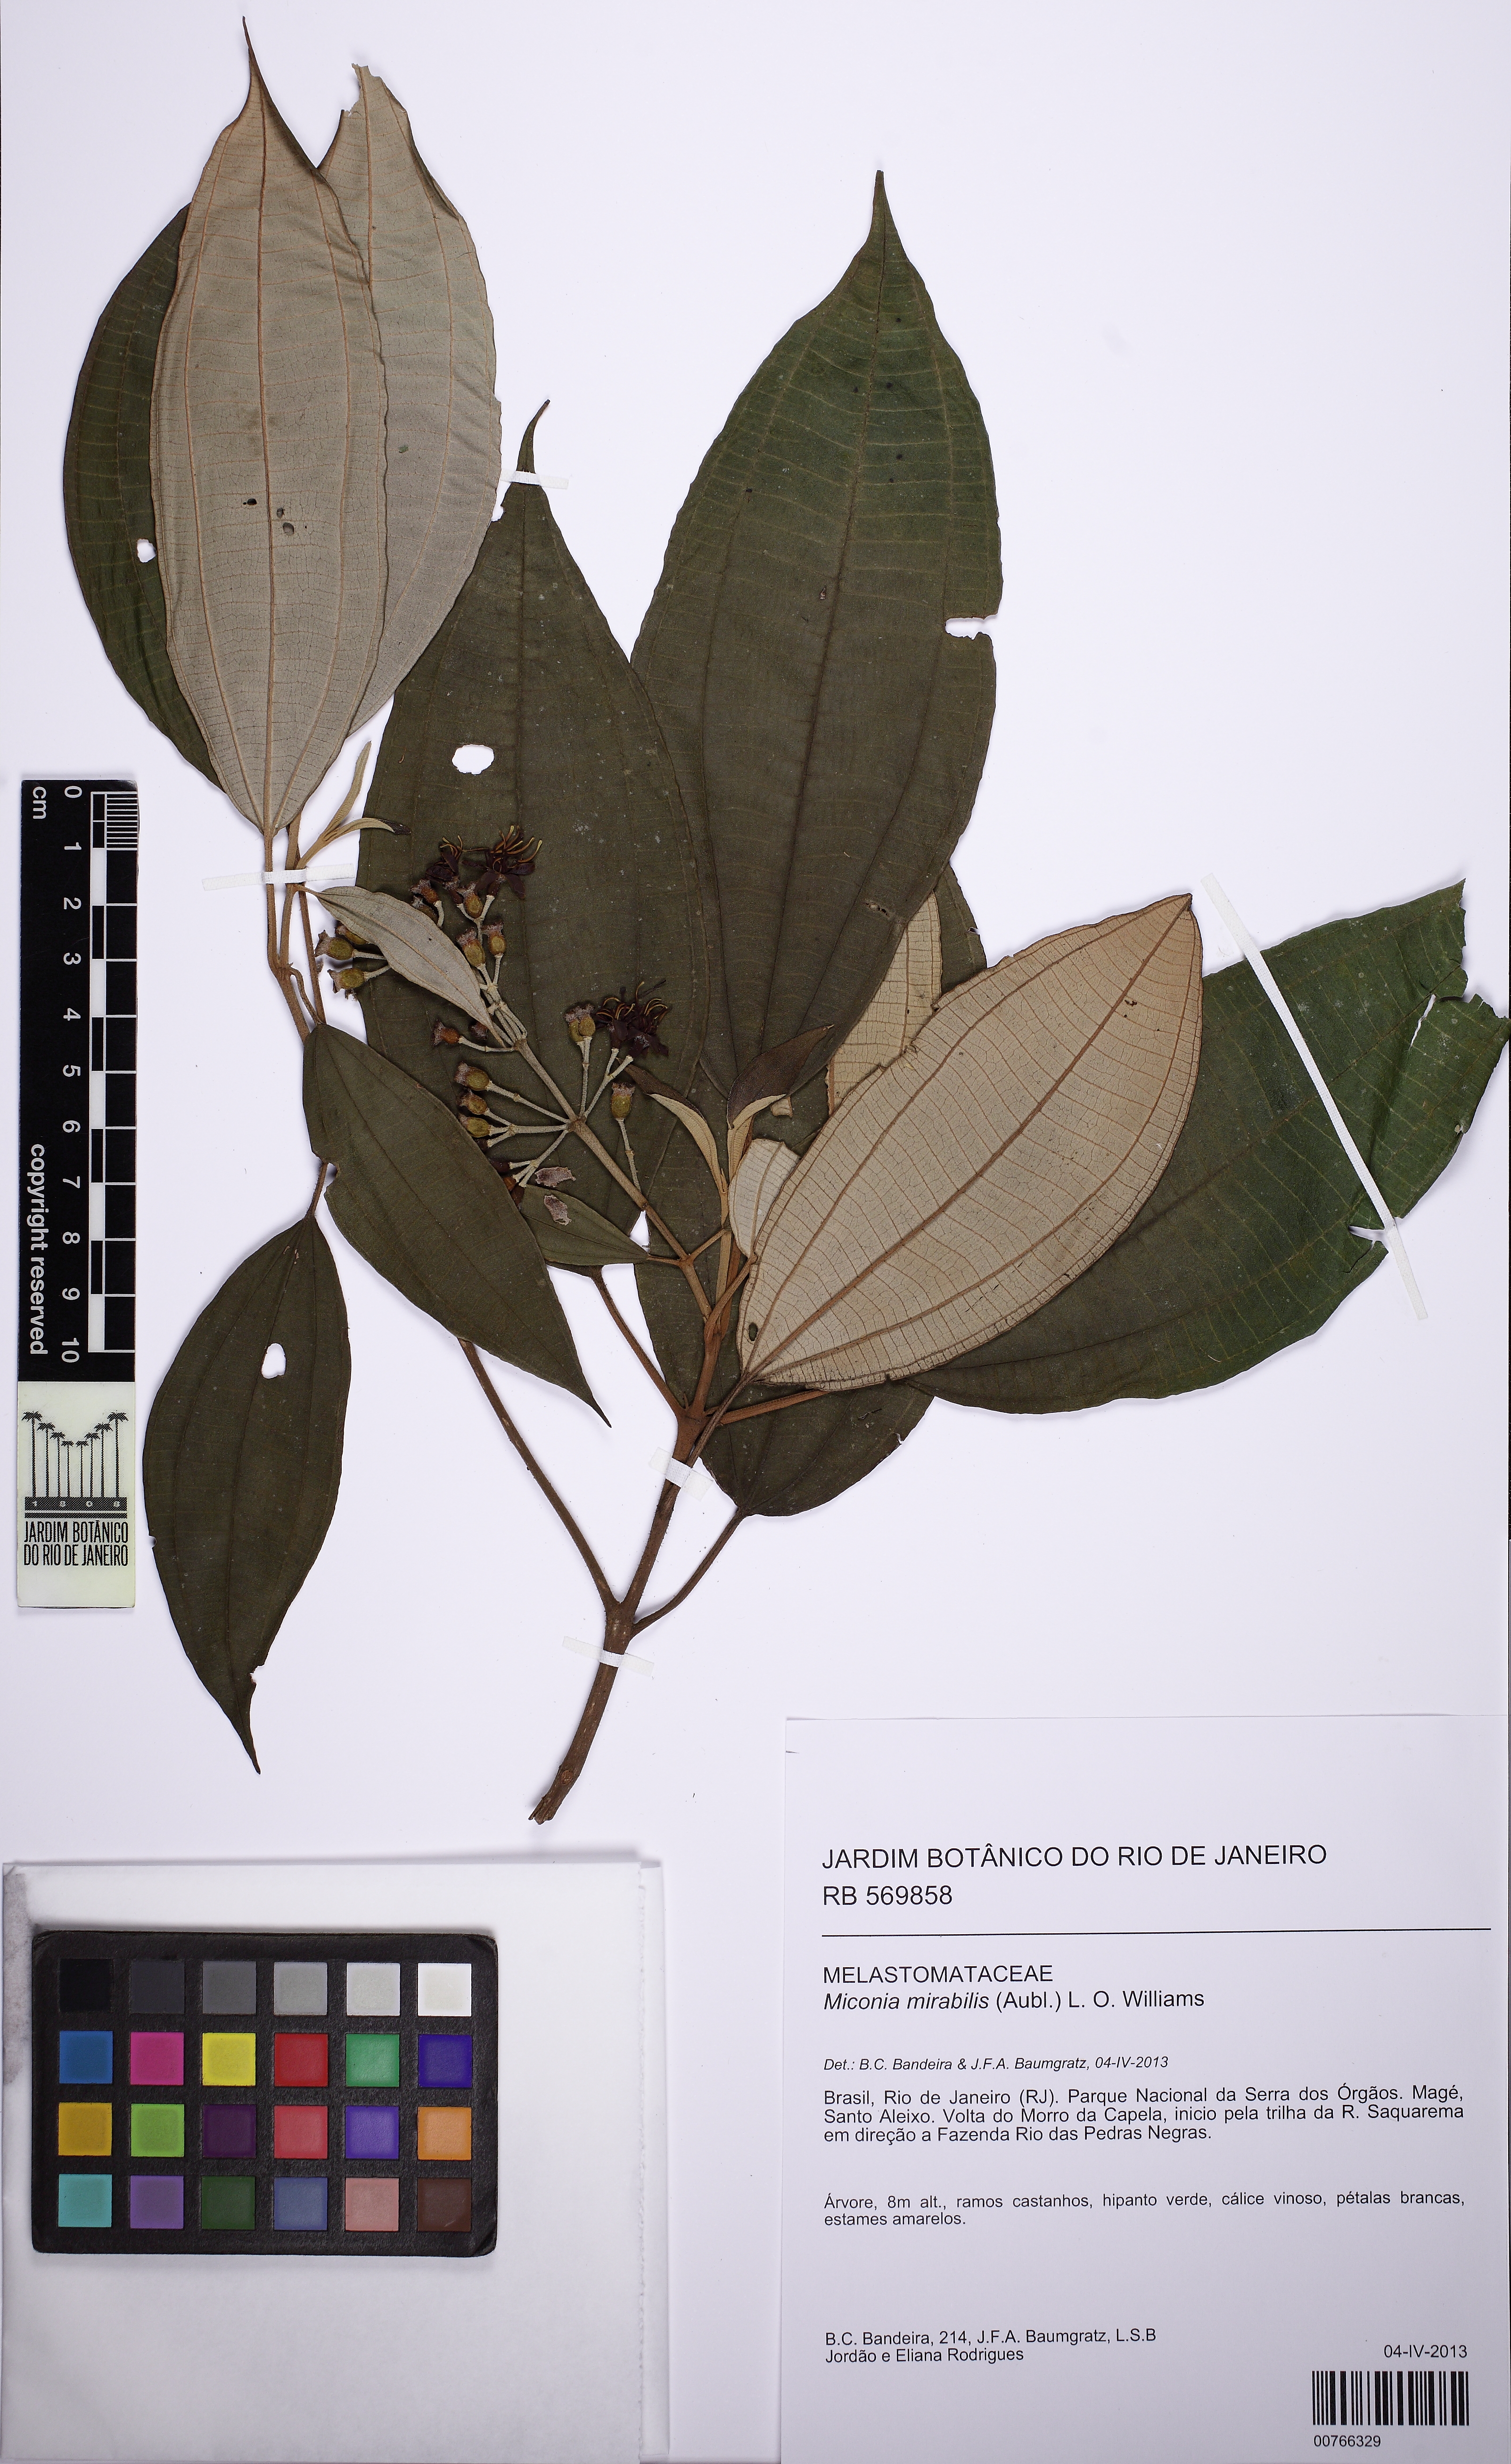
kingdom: Plantae
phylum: Tracheophyta
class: Magnoliopsida
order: Myrtales
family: Melastomataceae
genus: Miconia
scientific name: Miconia mirabilis
